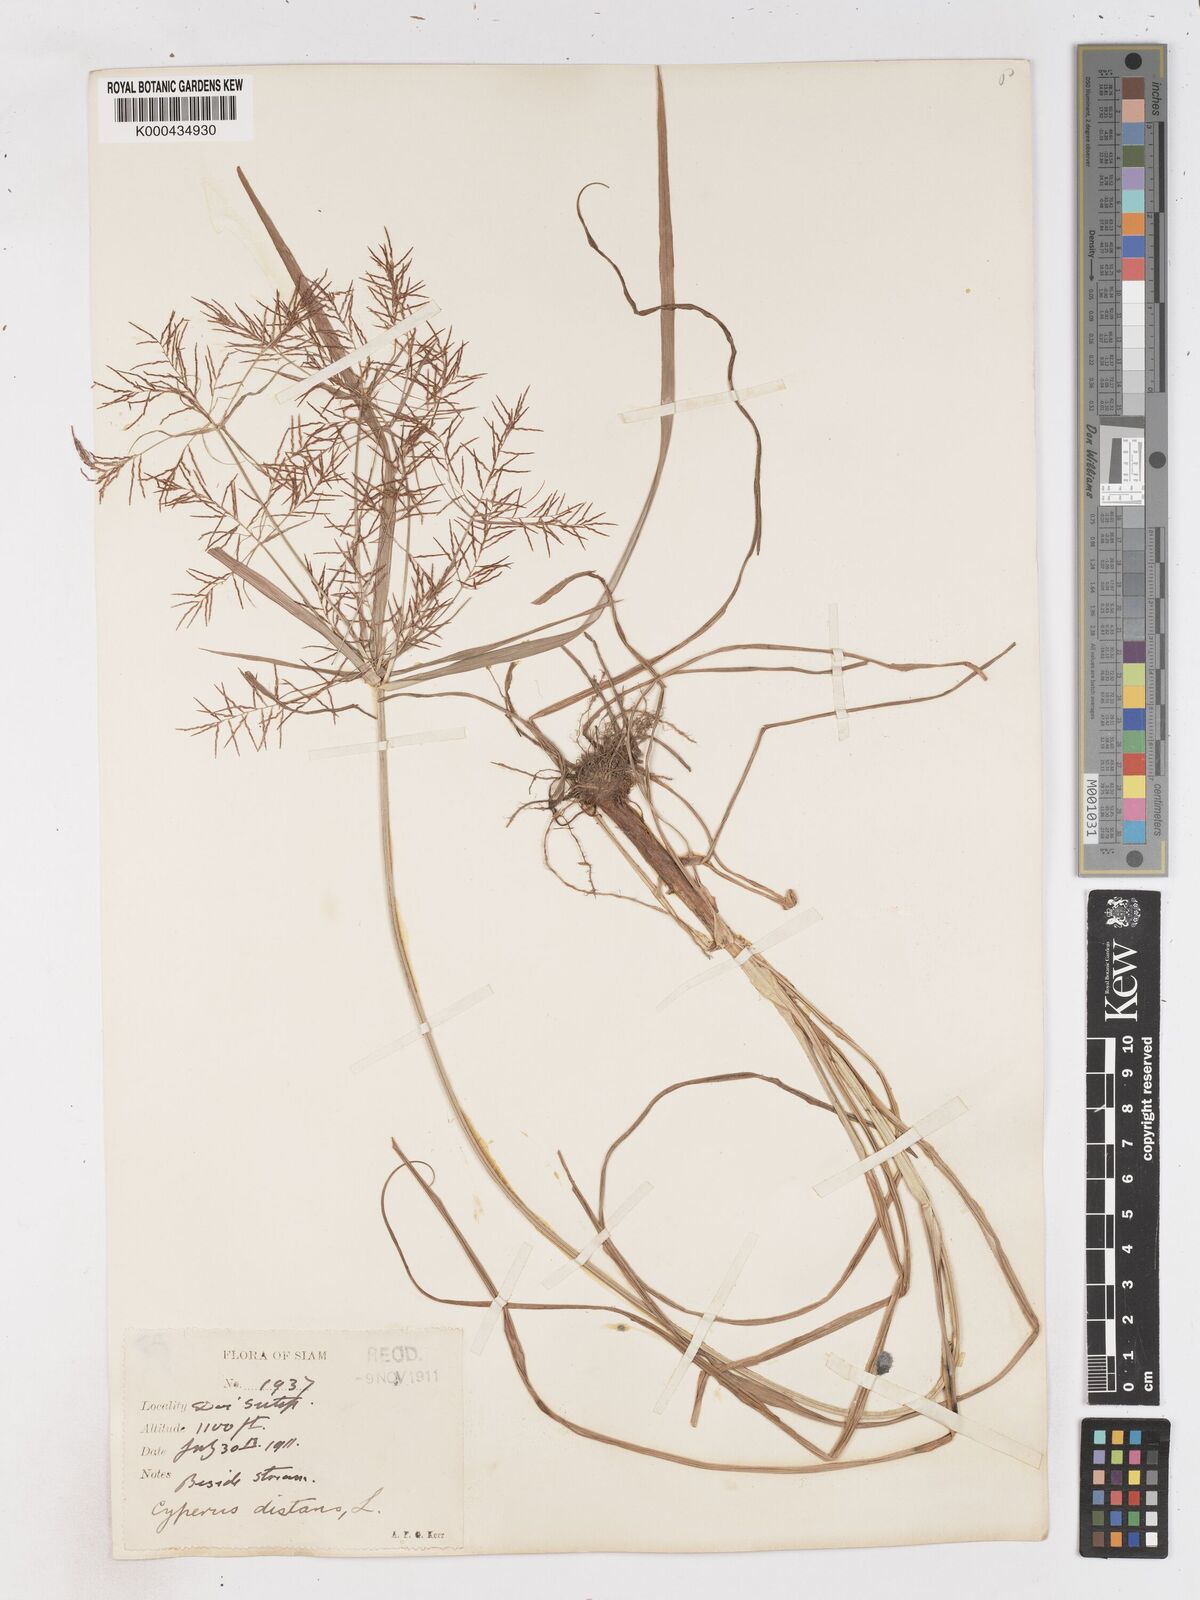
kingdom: Plantae
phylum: Tracheophyta
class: Liliopsida
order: Poales
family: Cyperaceae
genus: Cyperus
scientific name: Cyperus distans
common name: Slender cyperus
